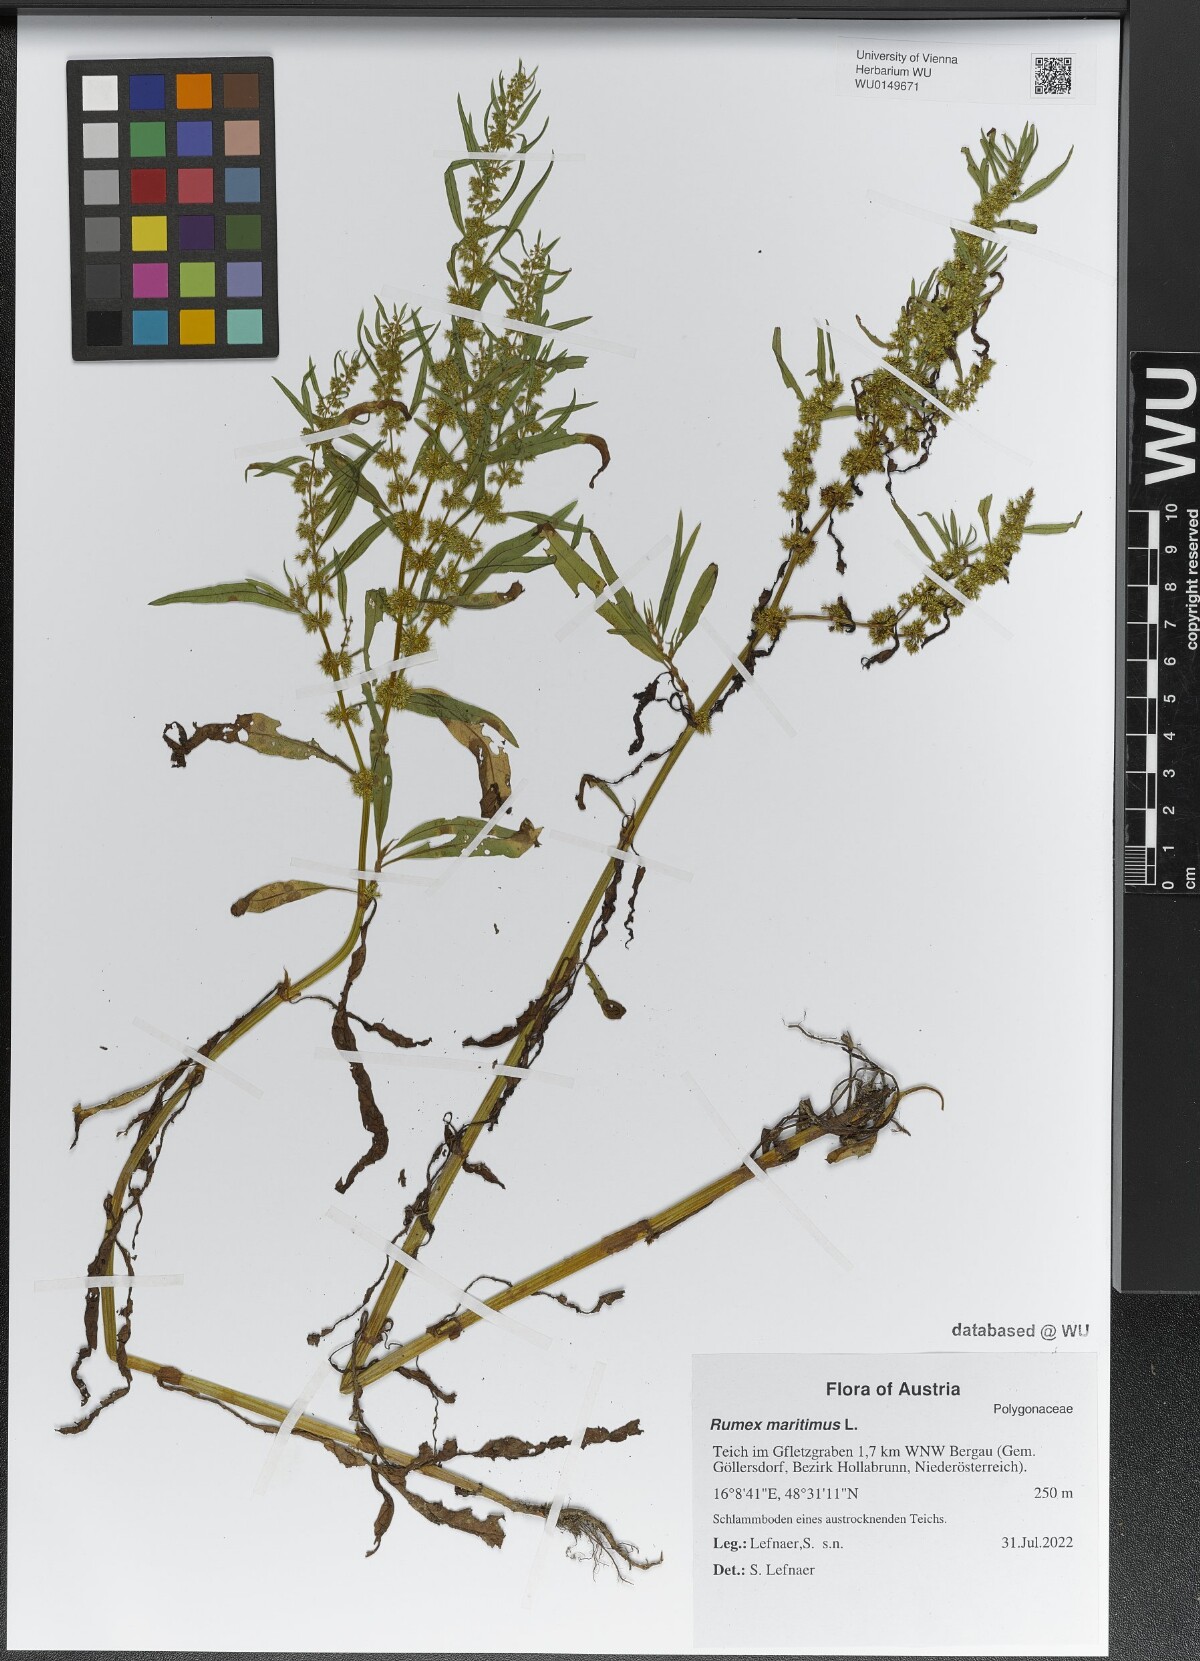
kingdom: Plantae
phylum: Tracheophyta
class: Magnoliopsida
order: Caryophyllales
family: Polygonaceae
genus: Rumex
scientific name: Rumex maritimus
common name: Golden dock
